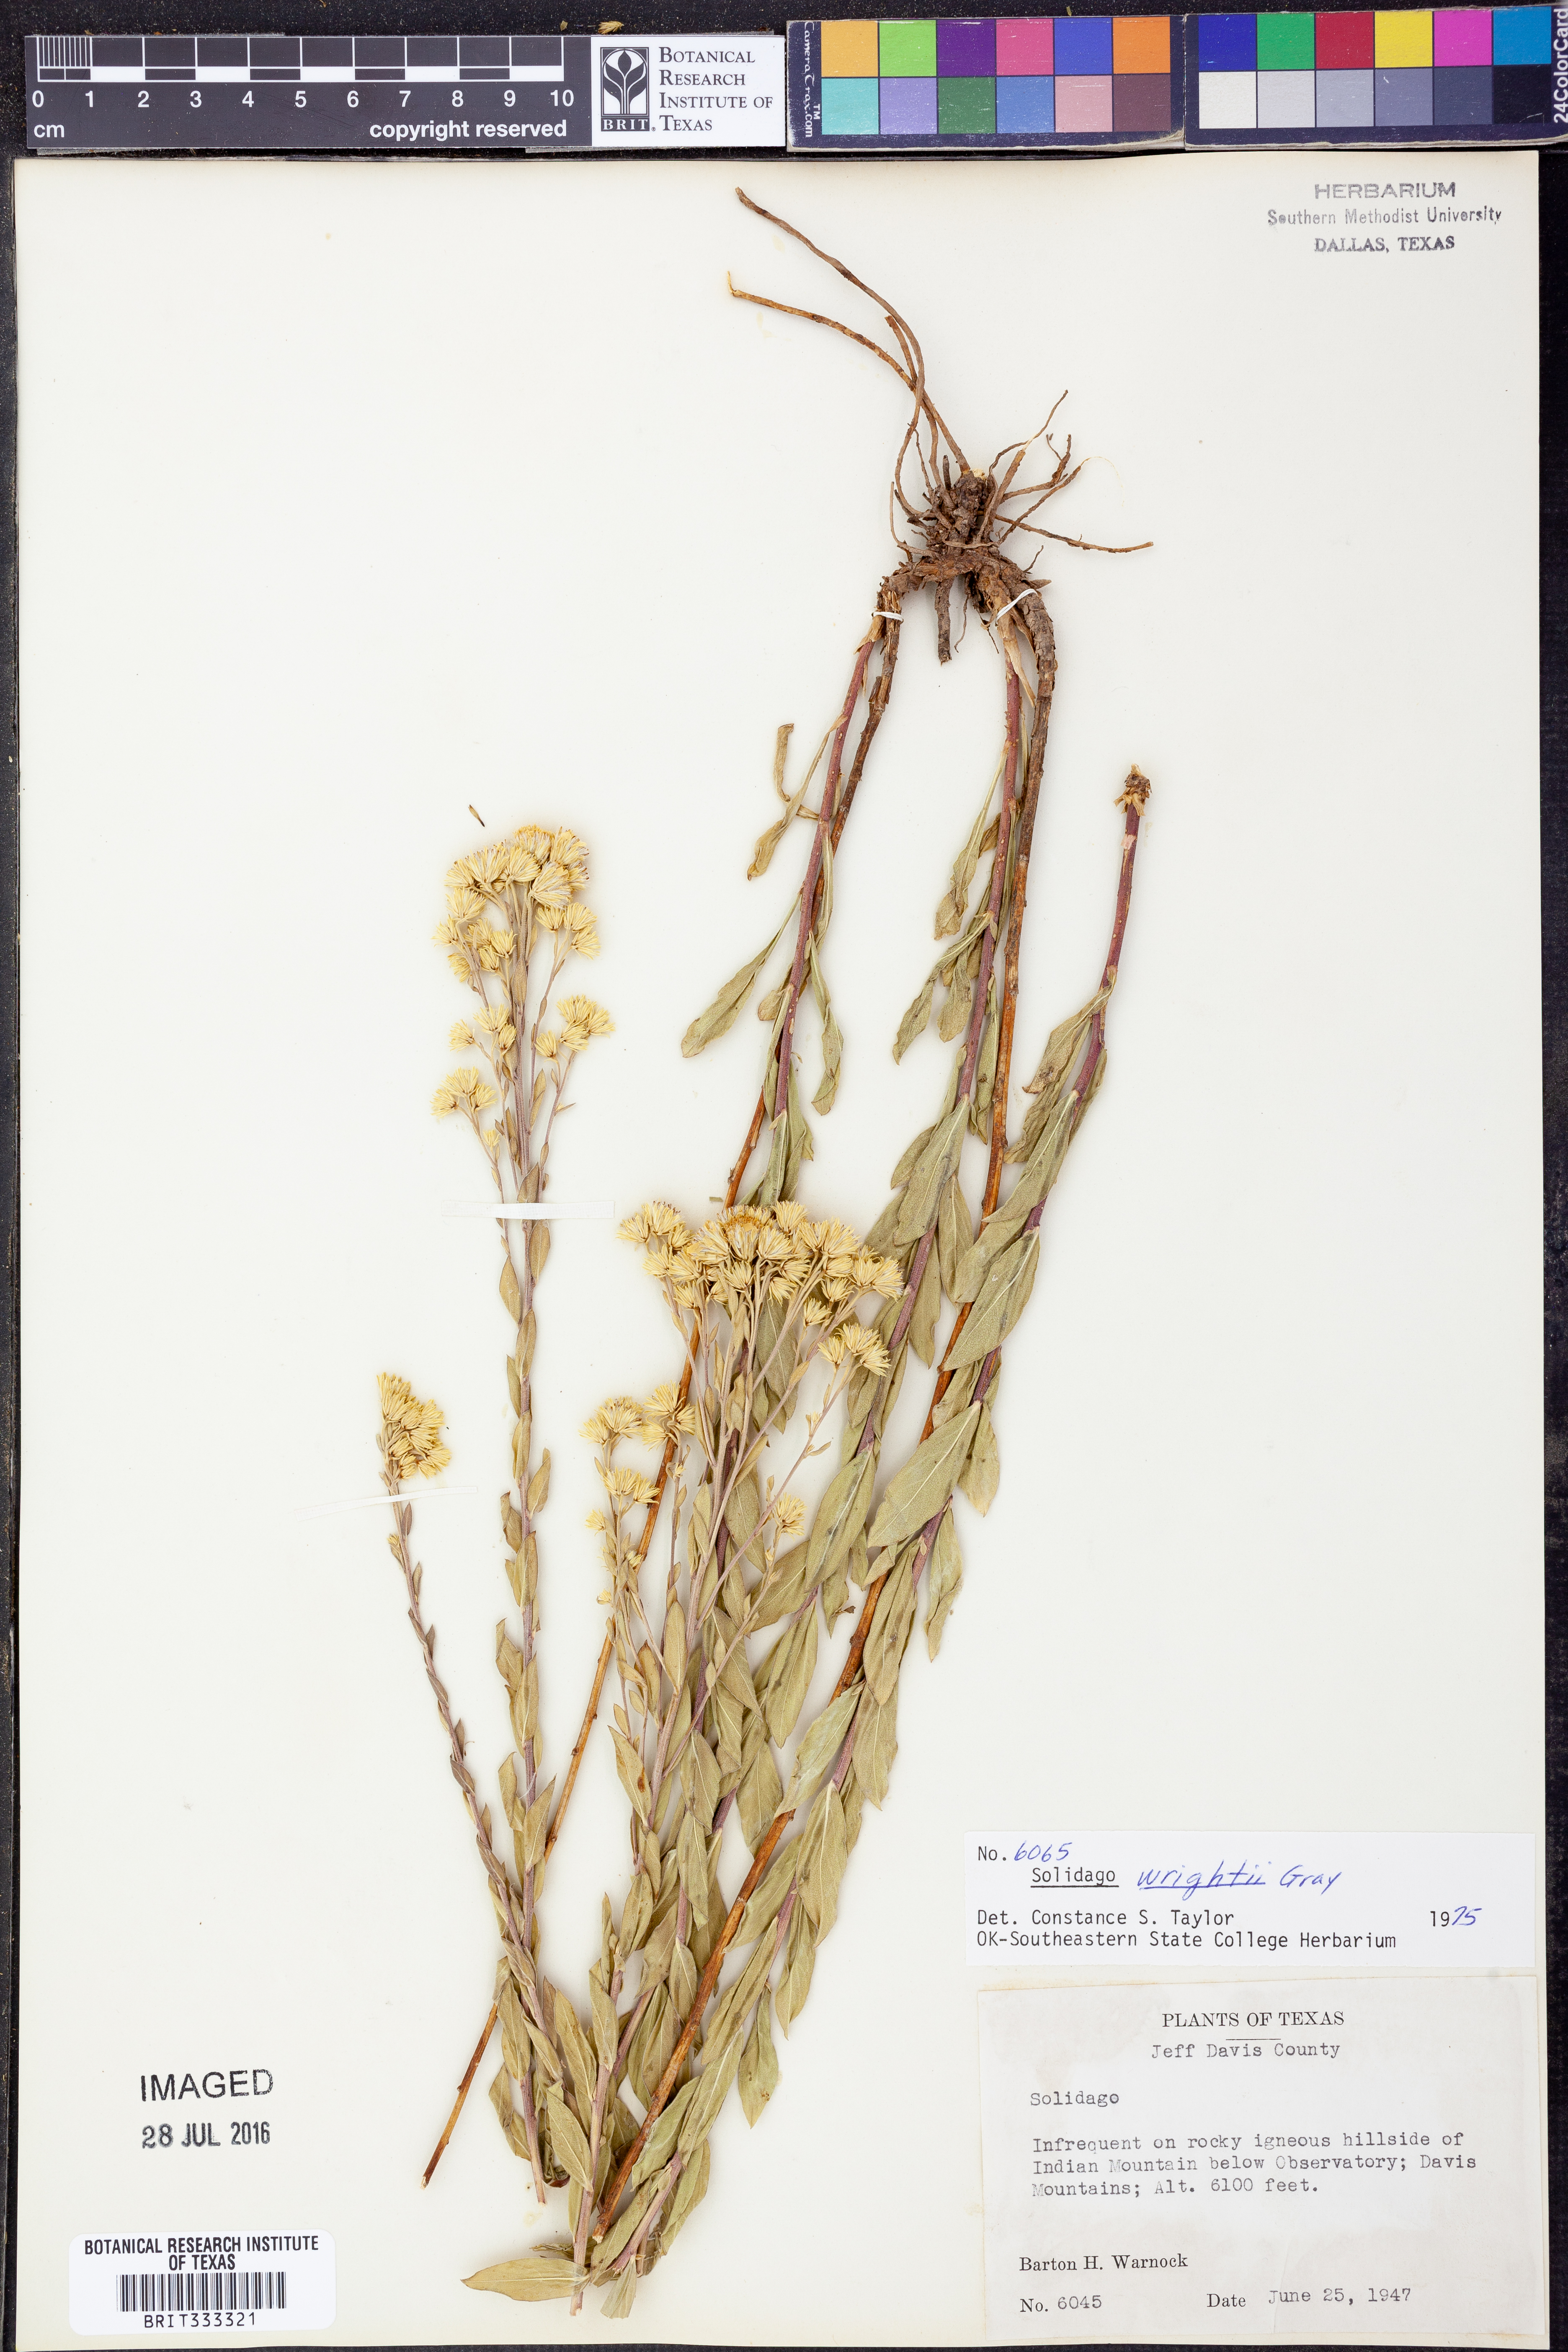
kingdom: Plantae
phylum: Tracheophyta
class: Magnoliopsida
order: Asterales
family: Asteraceae
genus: Solidago
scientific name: Solidago wrightii
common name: Wright's goldenrod
